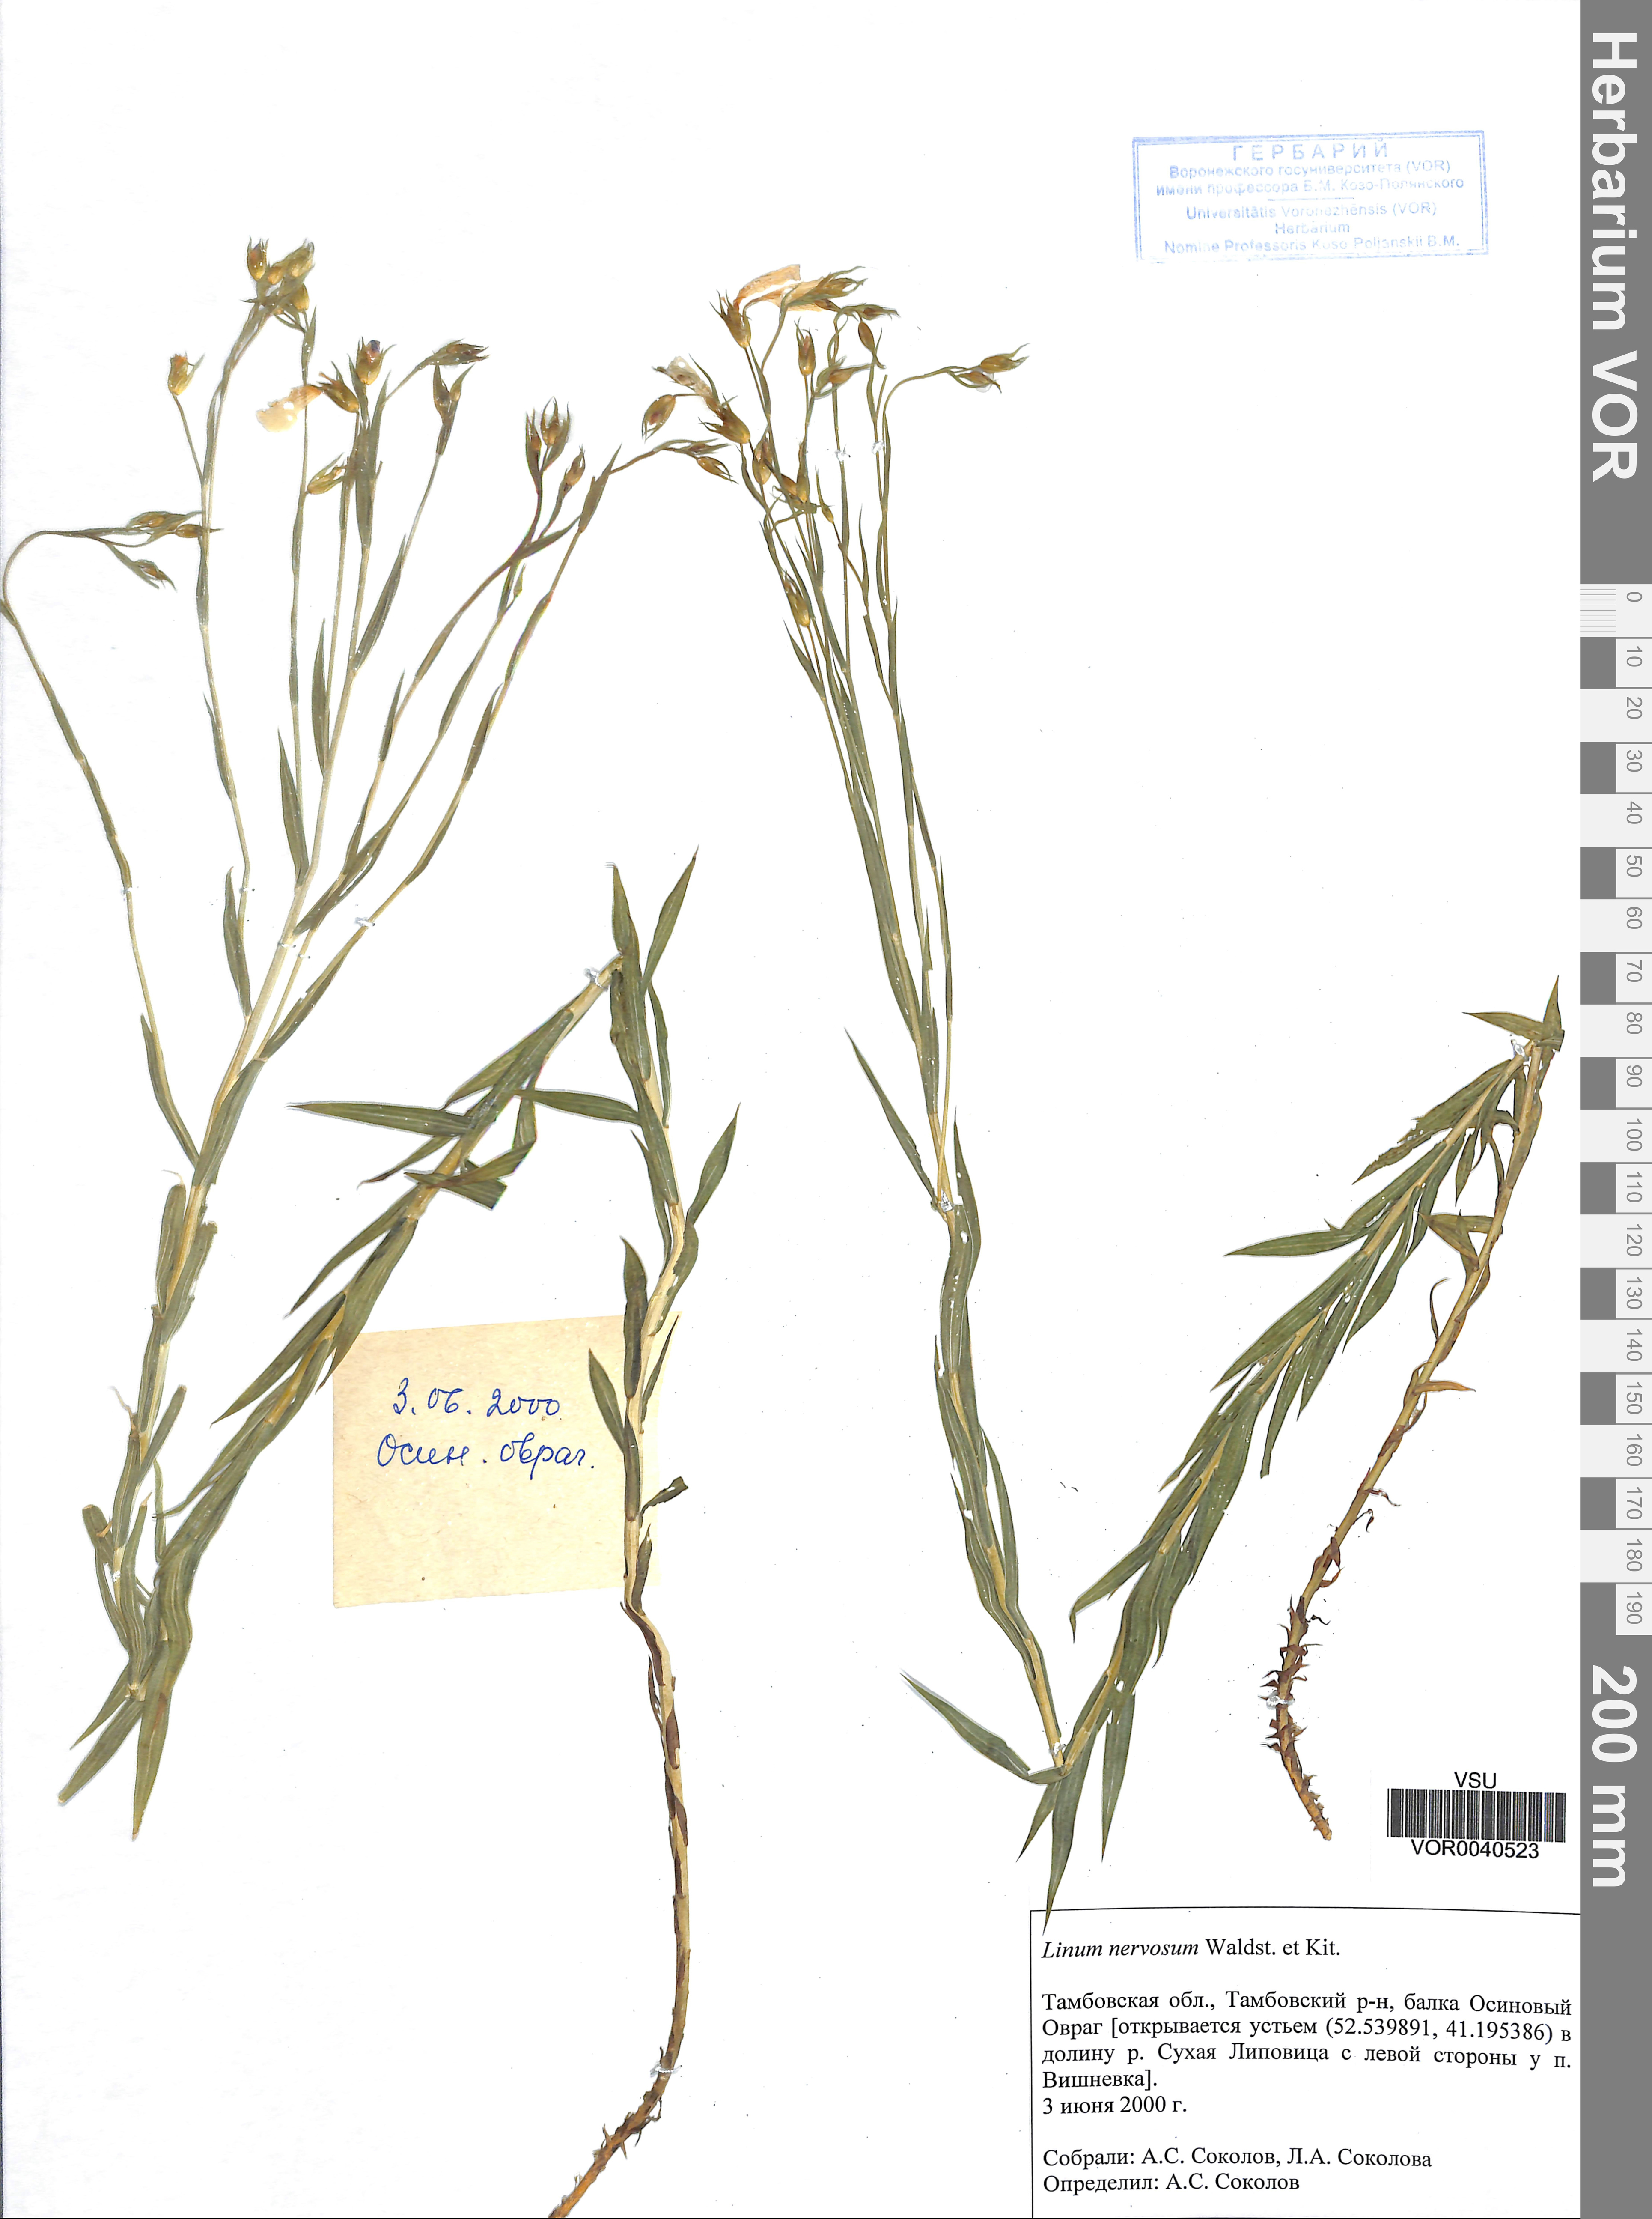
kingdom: Plantae
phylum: Tracheophyta
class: Magnoliopsida
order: Malpighiales
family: Linaceae
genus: Linum
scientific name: Linum nervosum
